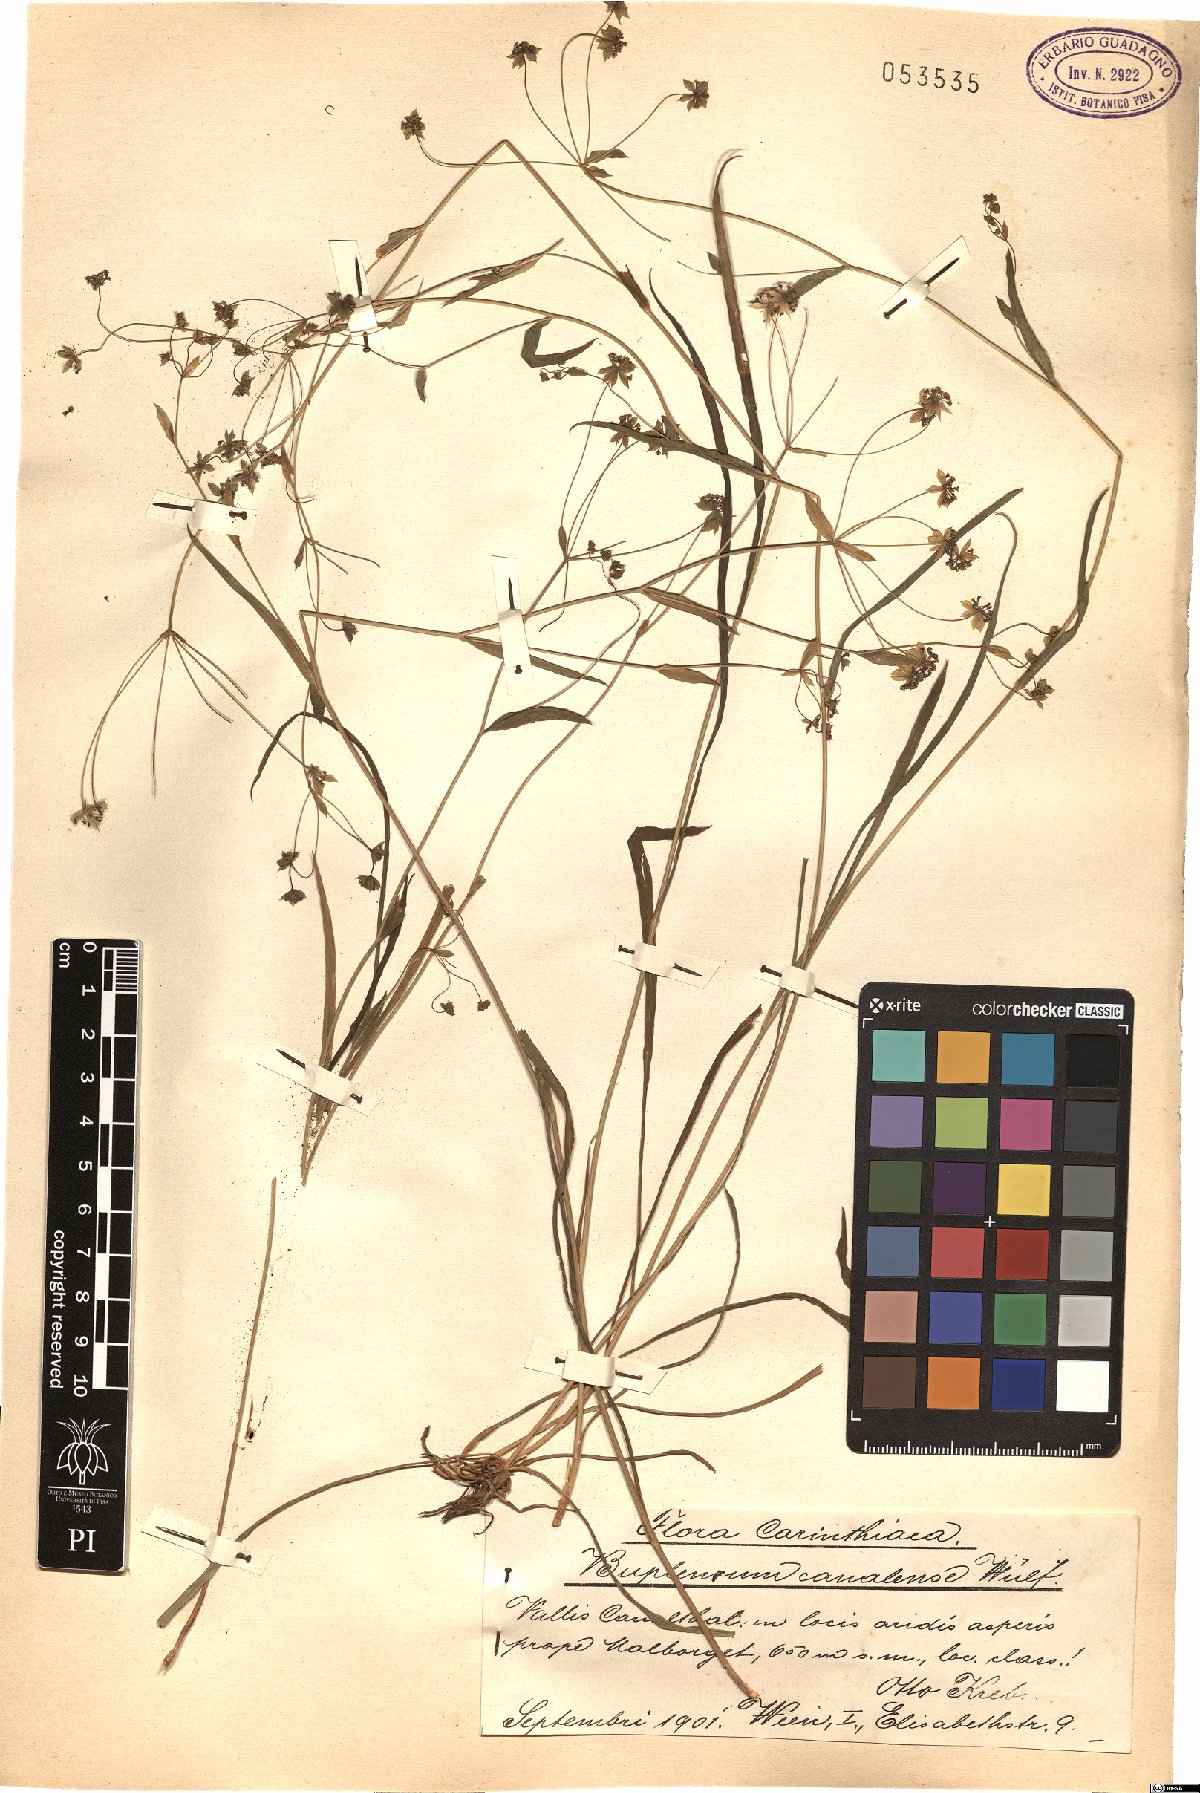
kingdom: Plantae
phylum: Tracheophyta
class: Magnoliopsida
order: Apiales
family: Apiaceae
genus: Bupleurum
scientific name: Bupleurum ranunculoides
